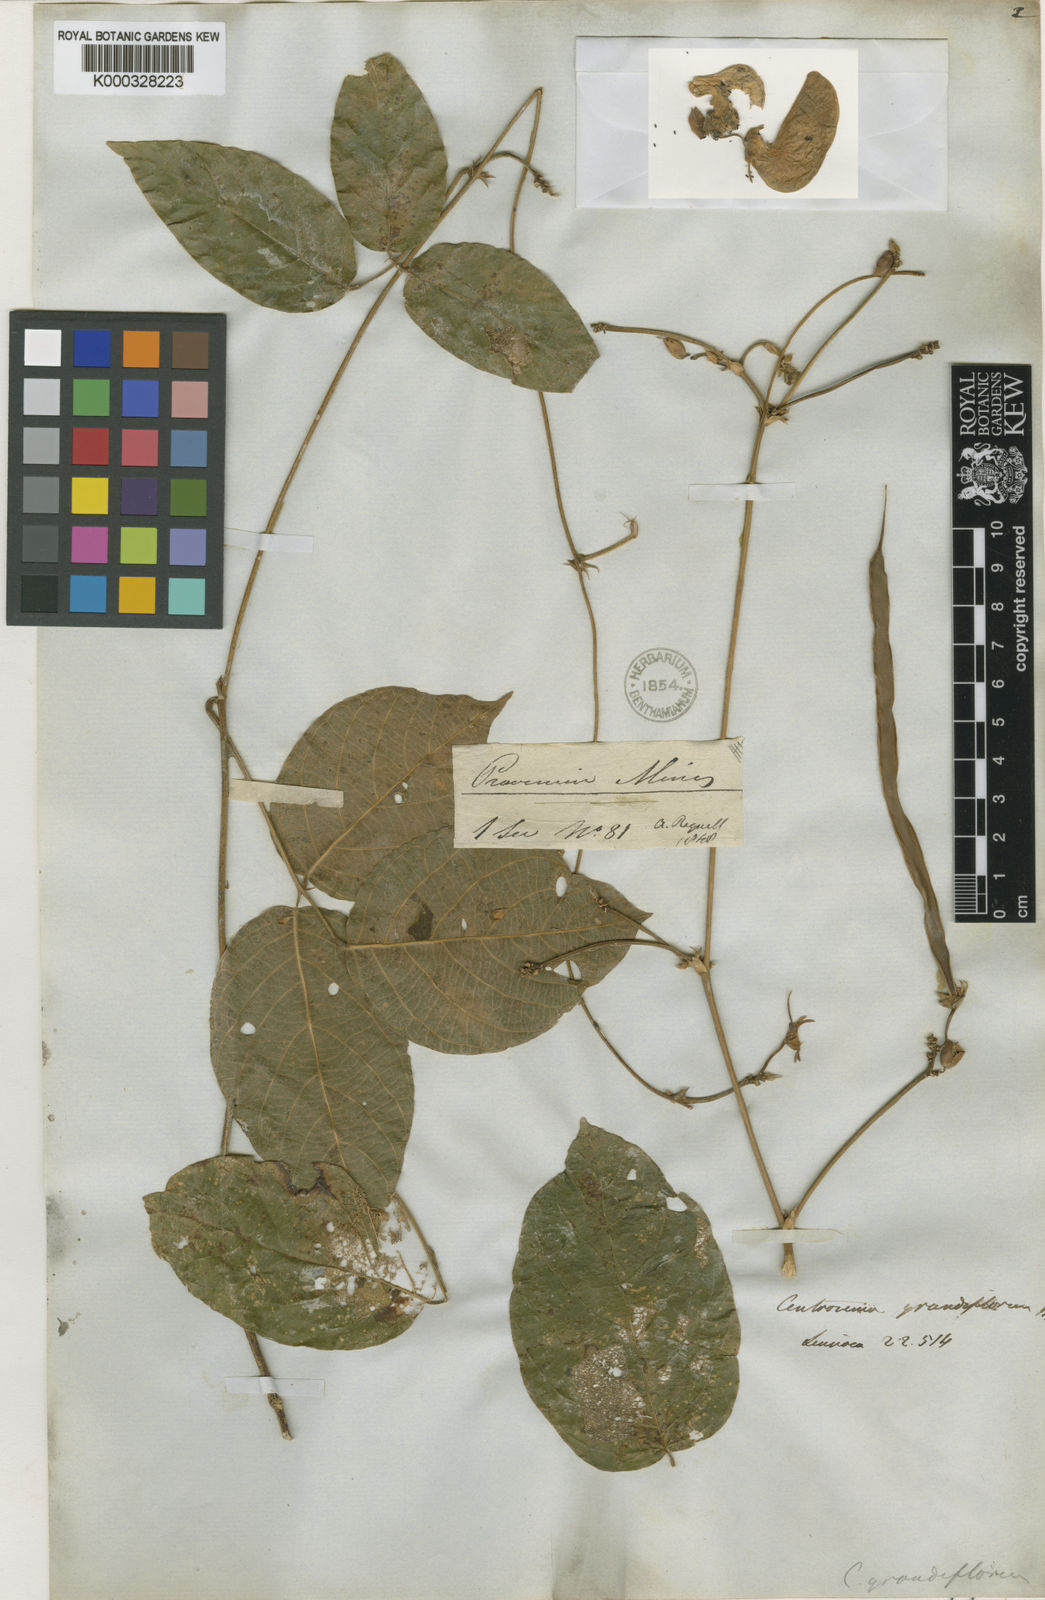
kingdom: Plantae
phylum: Tracheophyta
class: Magnoliopsida
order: Fabales
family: Fabaceae
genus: Centrosema
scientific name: Centrosema grandiflorum
